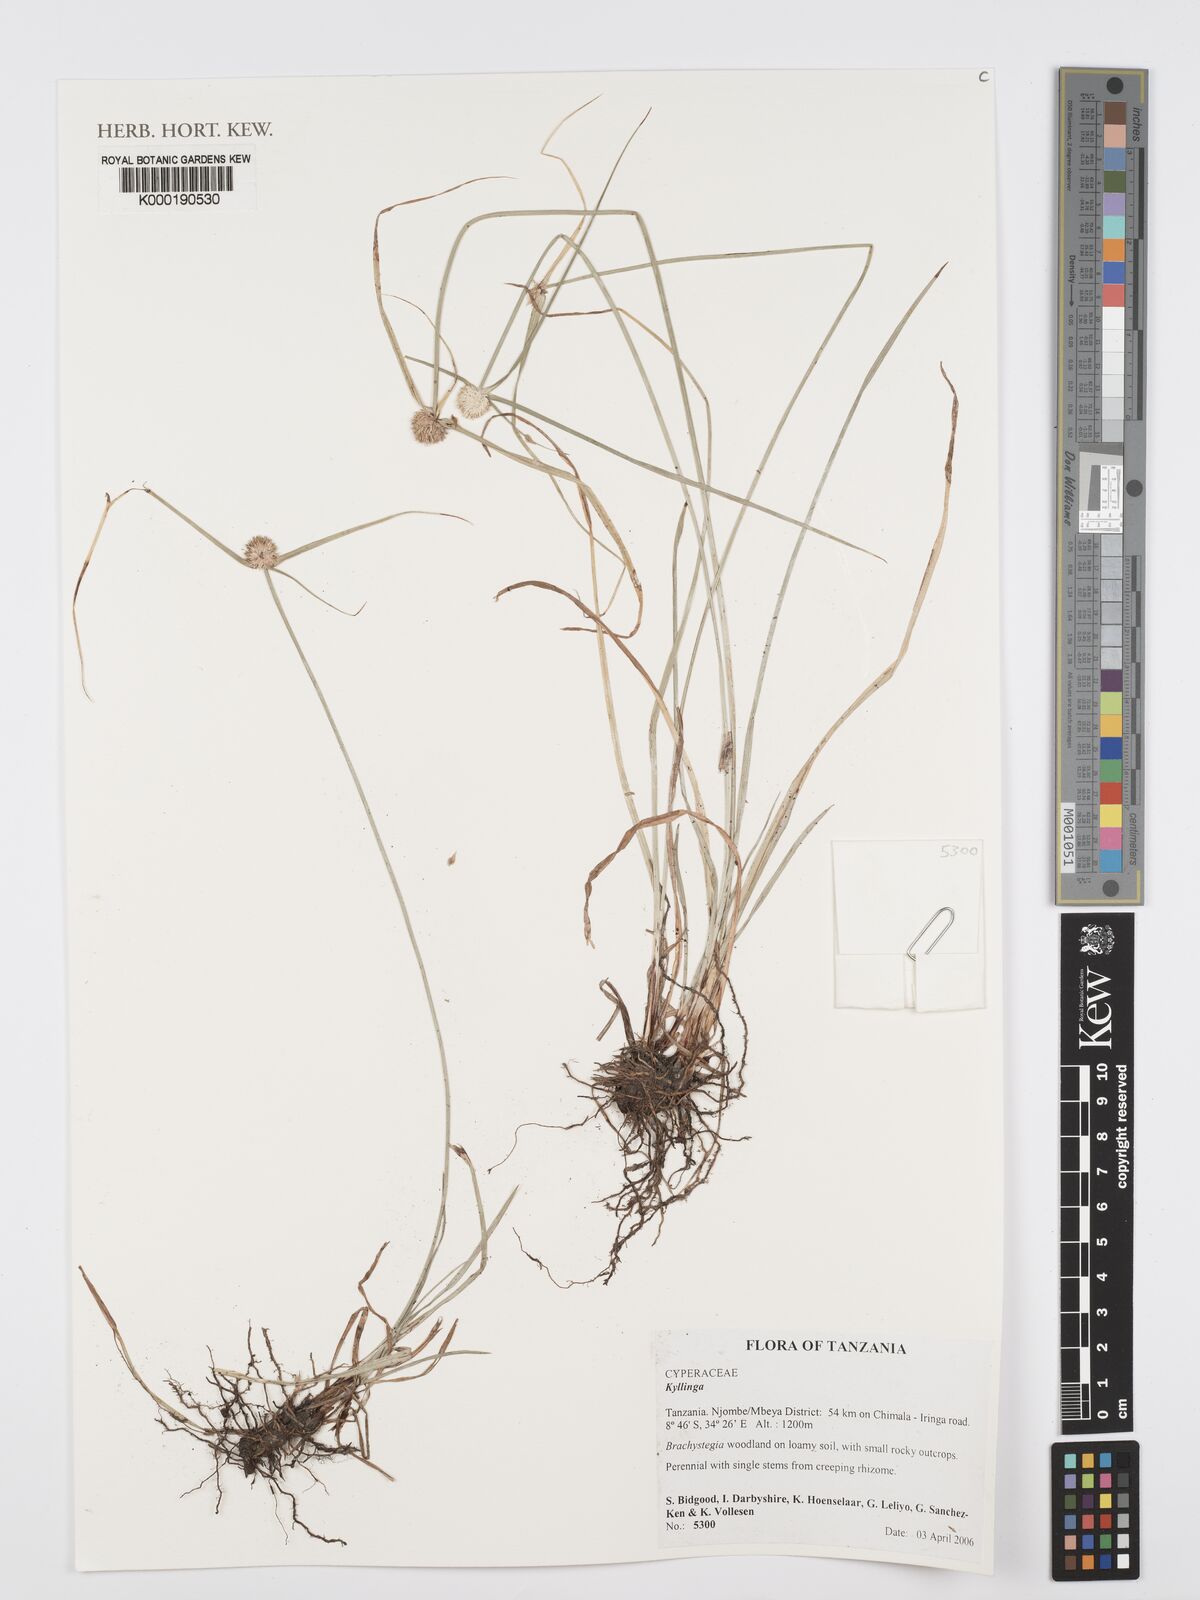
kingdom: Plantae
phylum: Tracheophyta
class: Liliopsida
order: Poales
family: Cyperaceae
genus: Cyperus
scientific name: Cyperus
